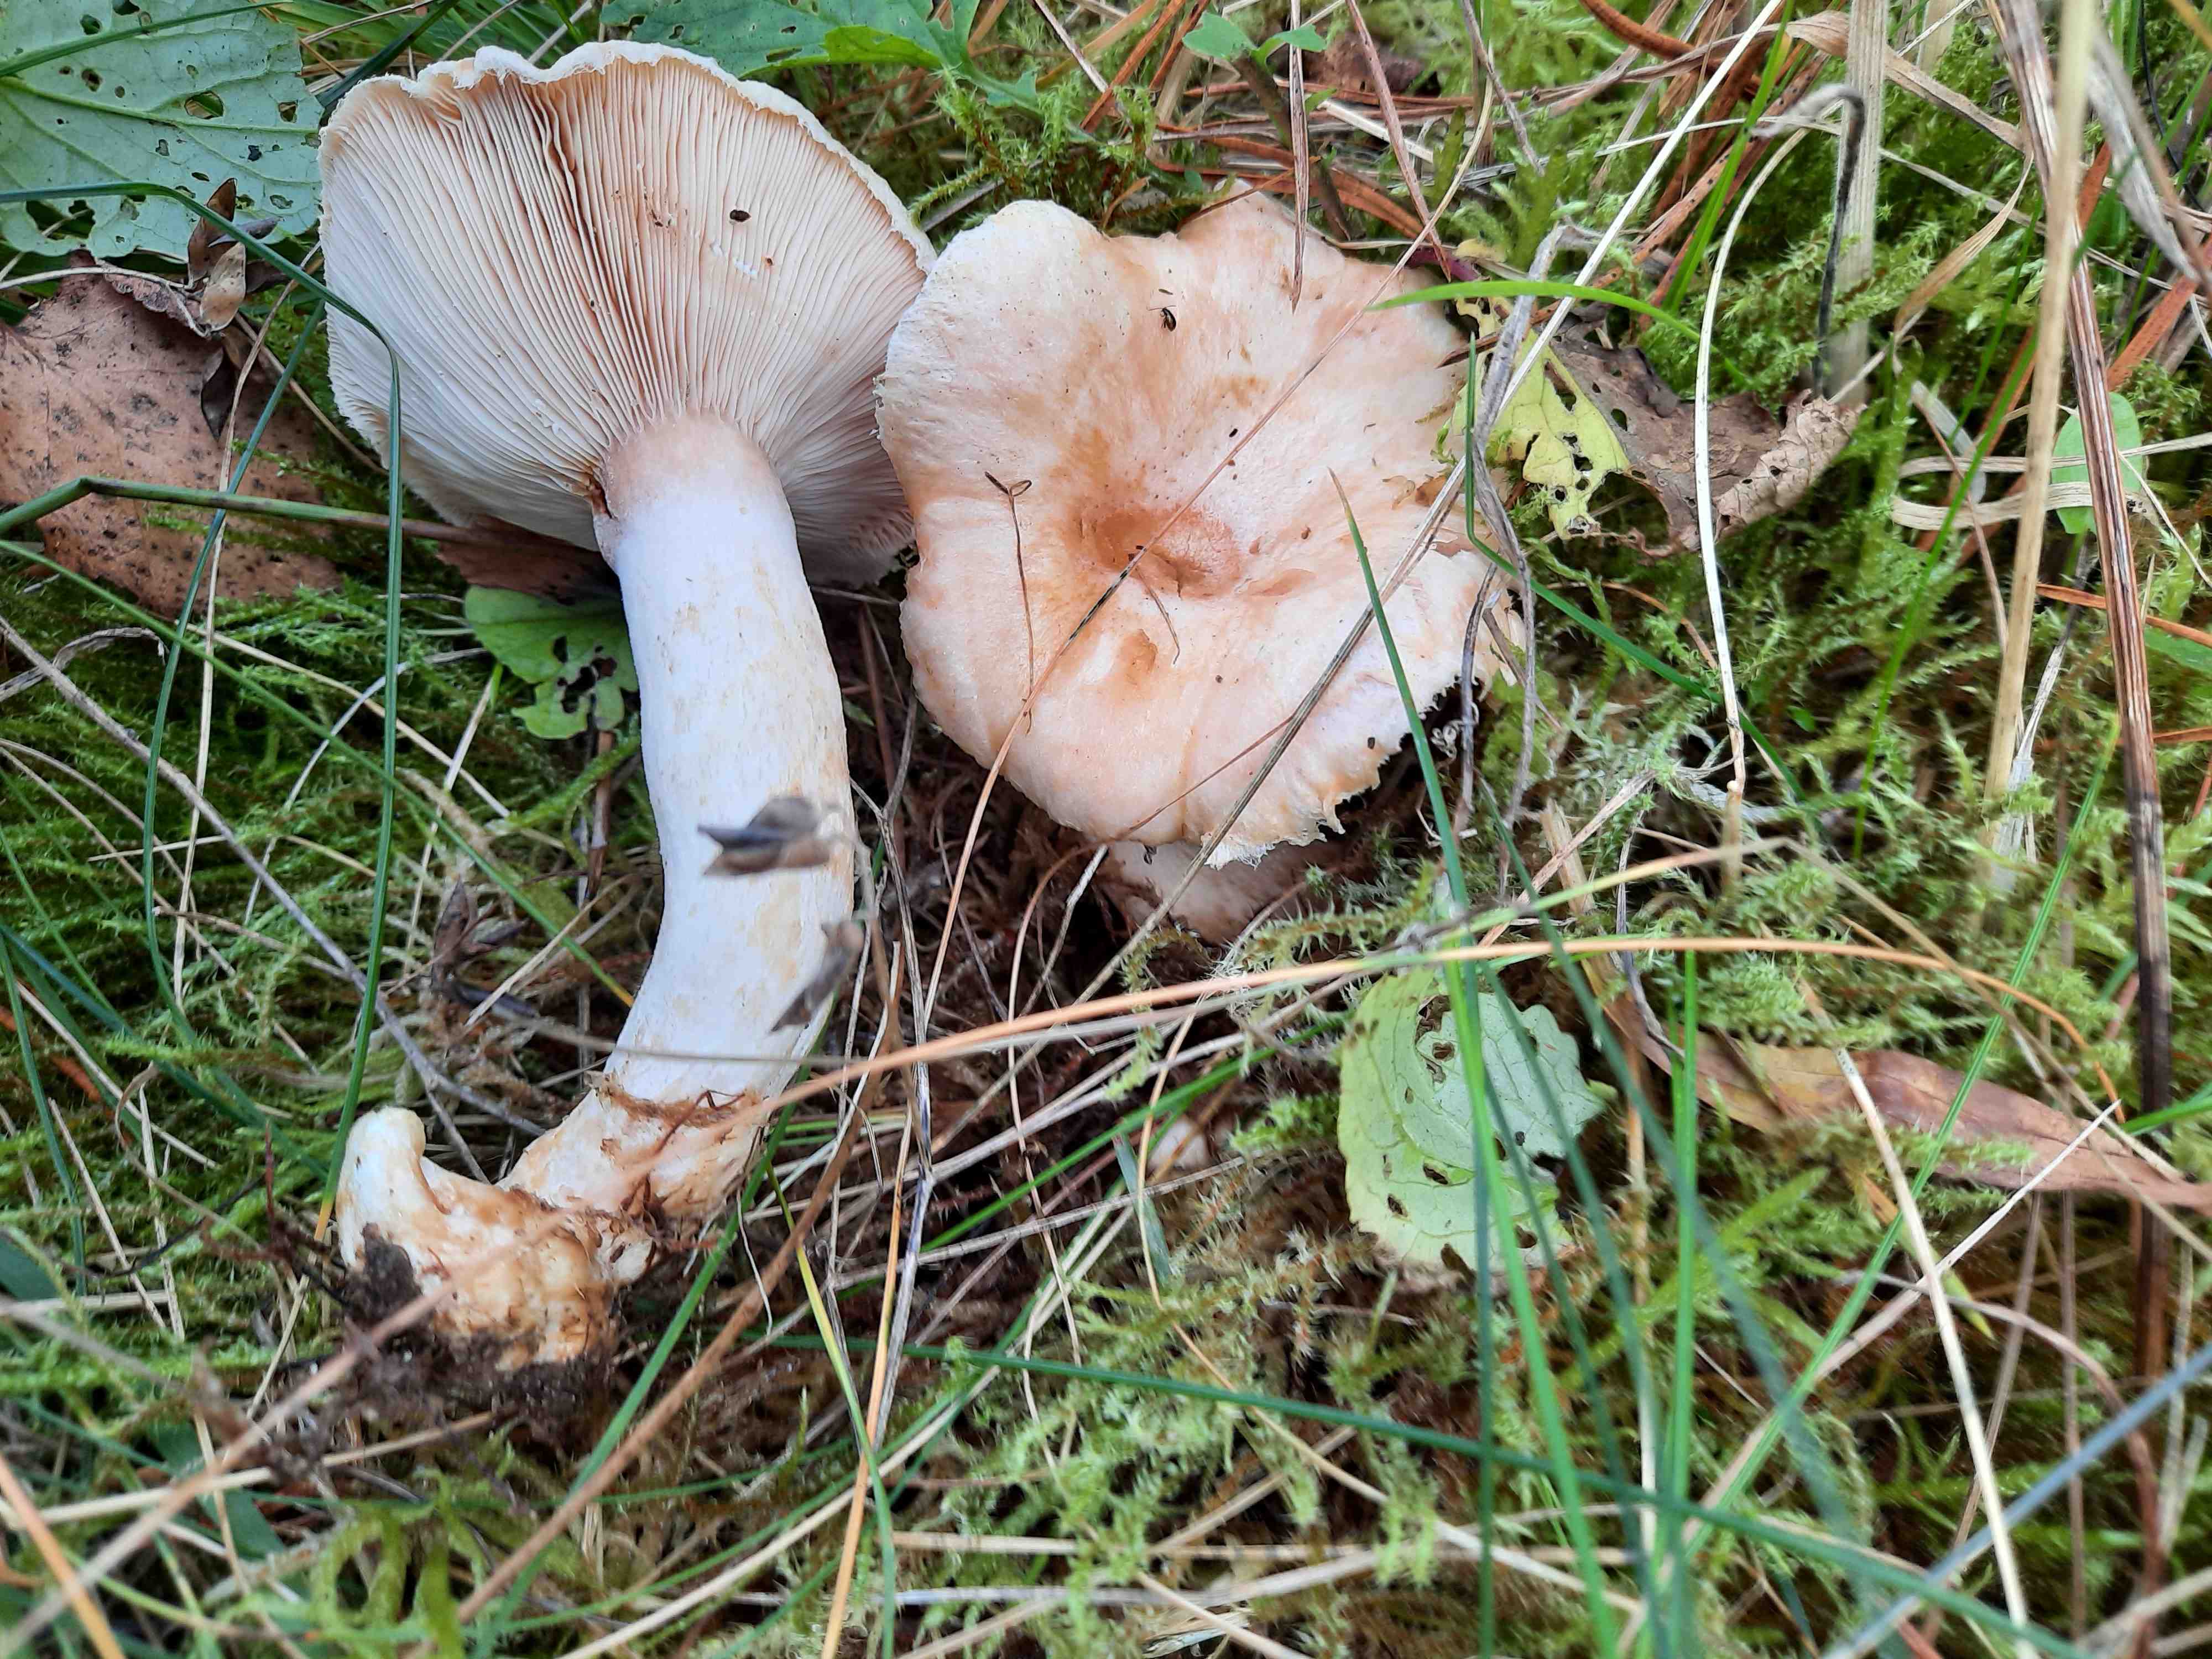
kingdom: Fungi
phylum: Basidiomycota
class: Agaricomycetes
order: Russulales
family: Russulaceae
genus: Lactarius
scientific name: Lactarius pubescens
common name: dunet mælkehat
